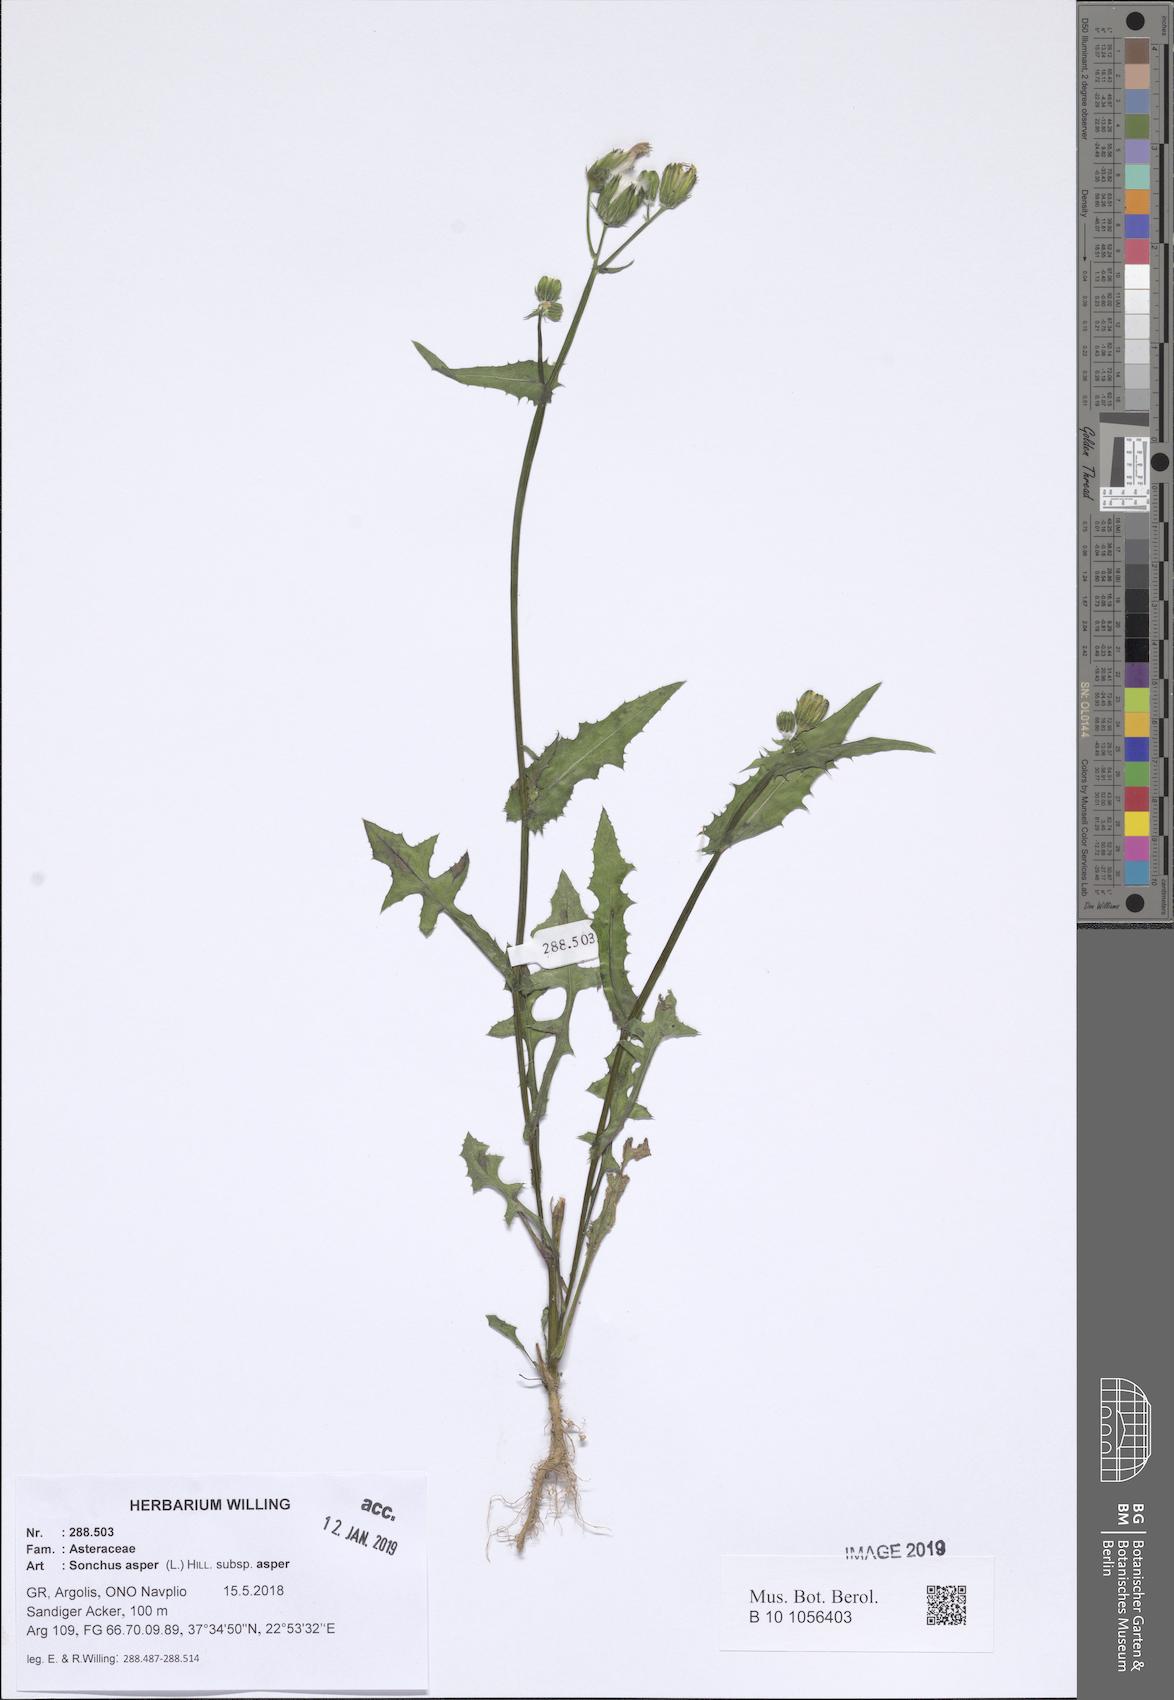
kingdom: Plantae
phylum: Tracheophyta
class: Magnoliopsida
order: Asterales
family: Asteraceae
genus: Sonchus
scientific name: Sonchus asper
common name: Prickly sow-thistle
